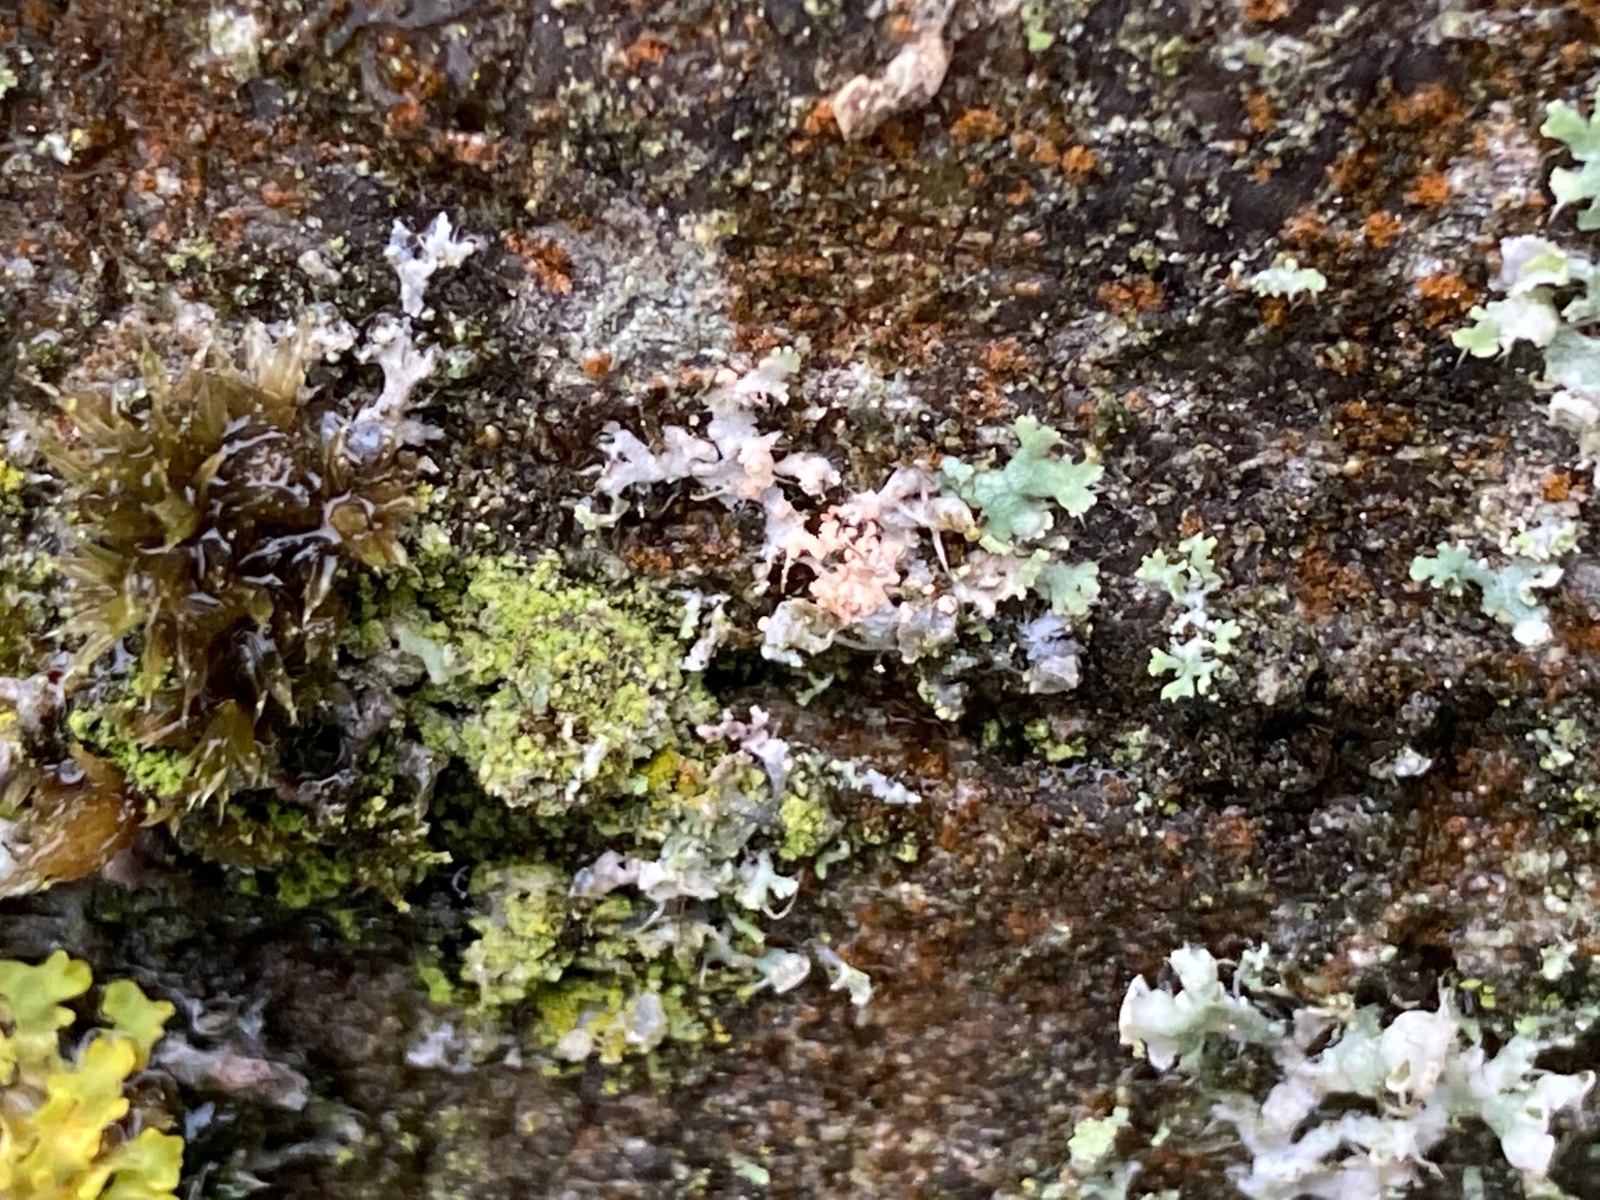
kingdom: Fungi
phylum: Basidiomycota
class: Agaricomycetes
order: Corticiales
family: Corticiaceae
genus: Erythricium
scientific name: Erythricium aurantiacum
